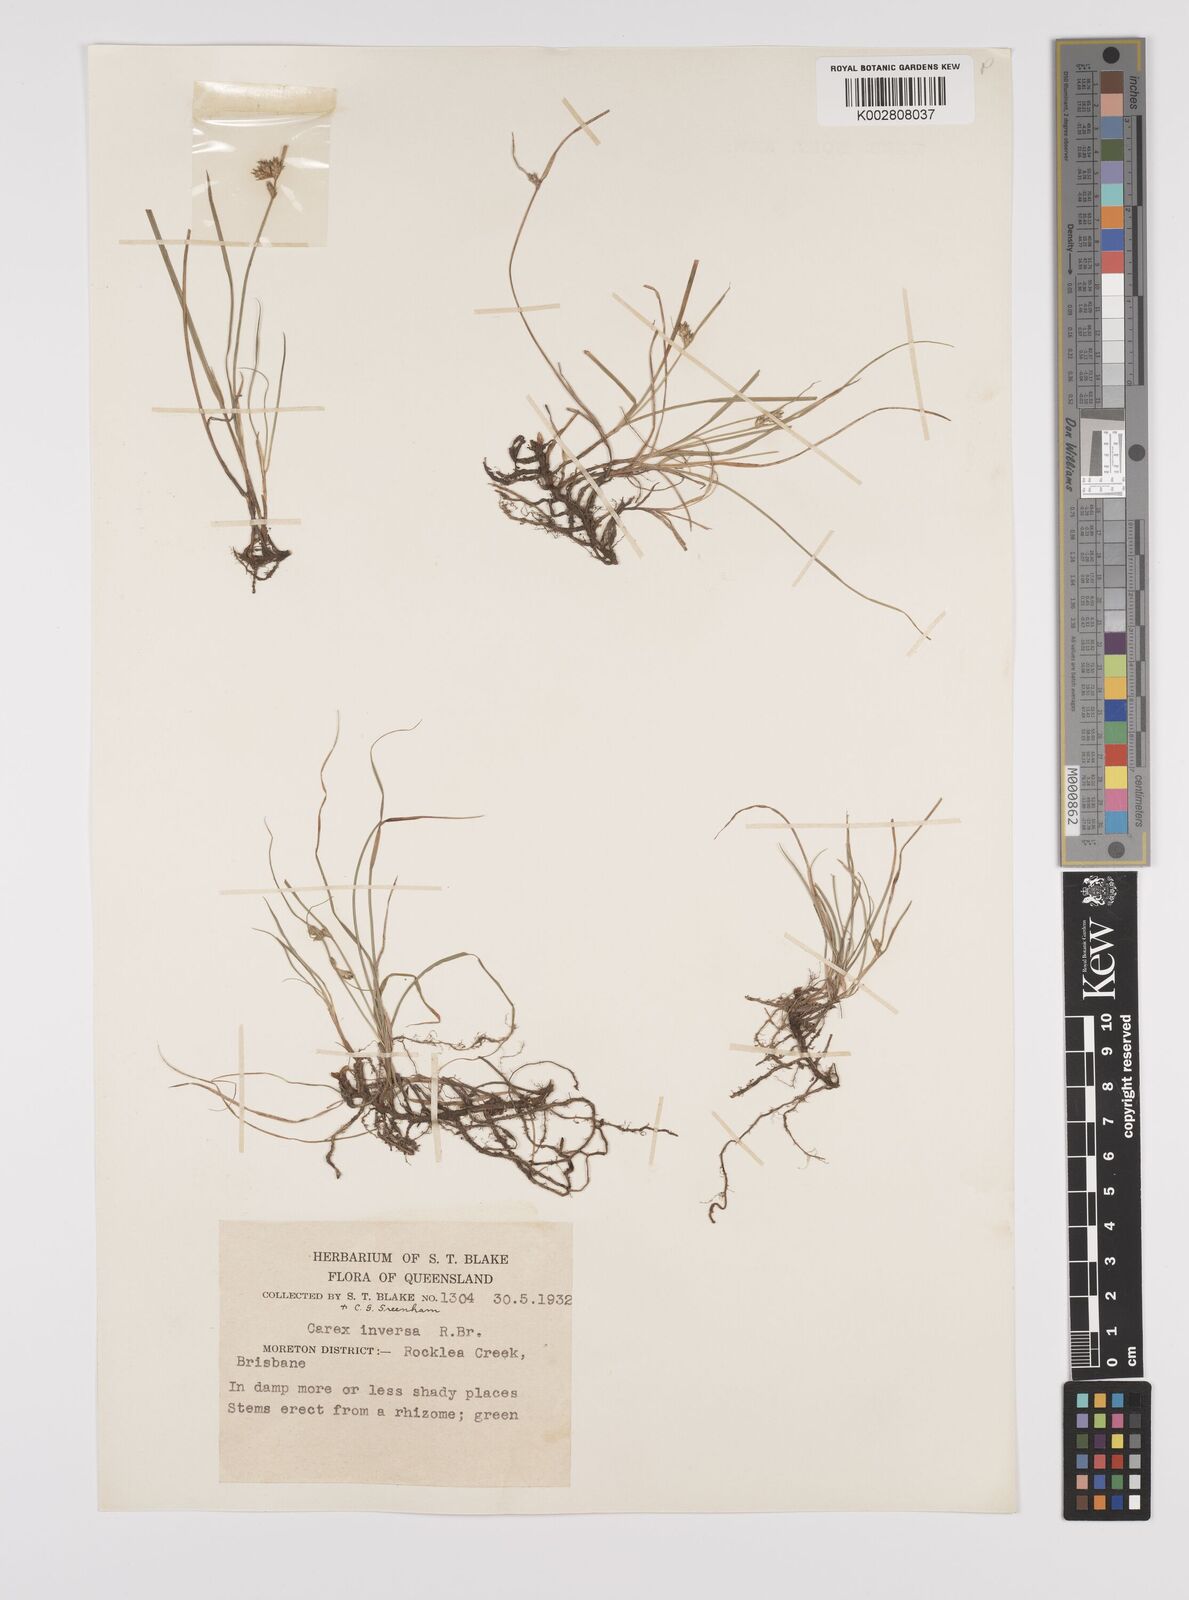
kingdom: Plantae
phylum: Tracheophyta
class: Liliopsida
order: Poales
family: Cyperaceae
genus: Carex
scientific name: Carex inversa
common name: Knob sedge
